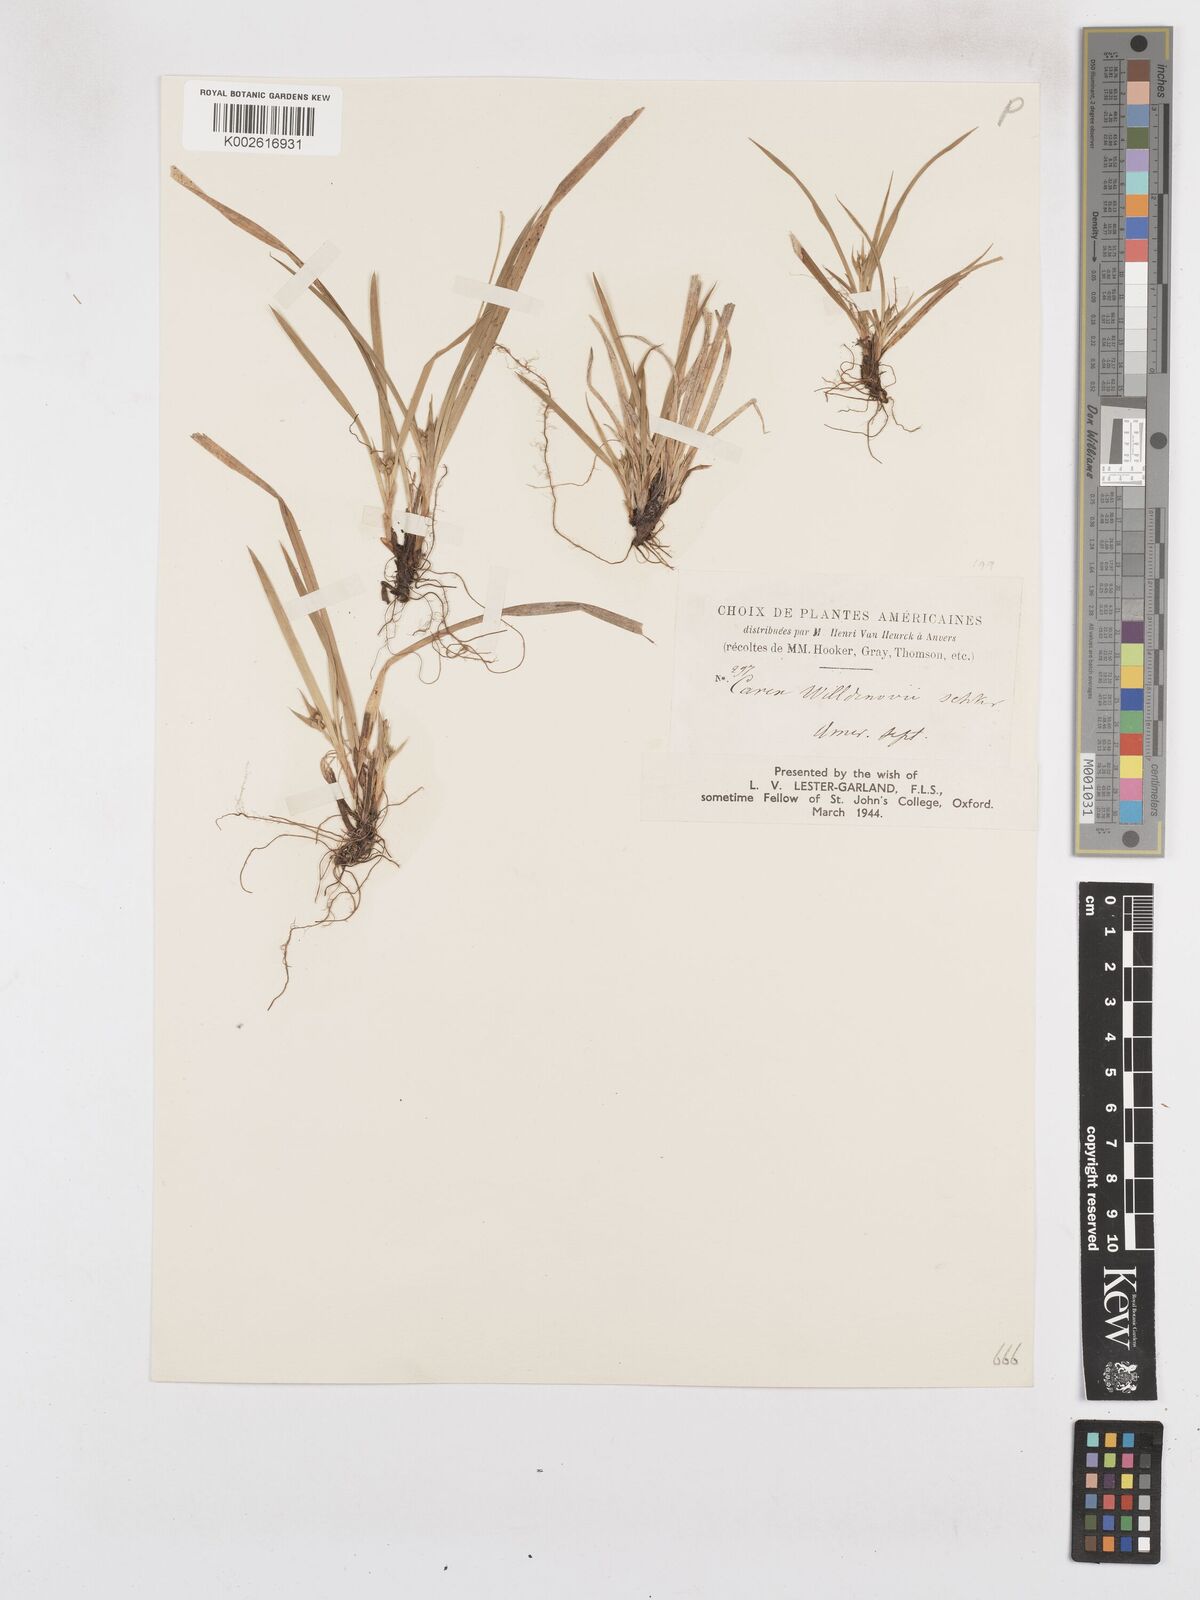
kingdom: Plantae
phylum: Tracheophyta
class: Liliopsida
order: Poales
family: Cyperaceae
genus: Carex
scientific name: Carex willdenowii
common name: Willdenow's sedge
